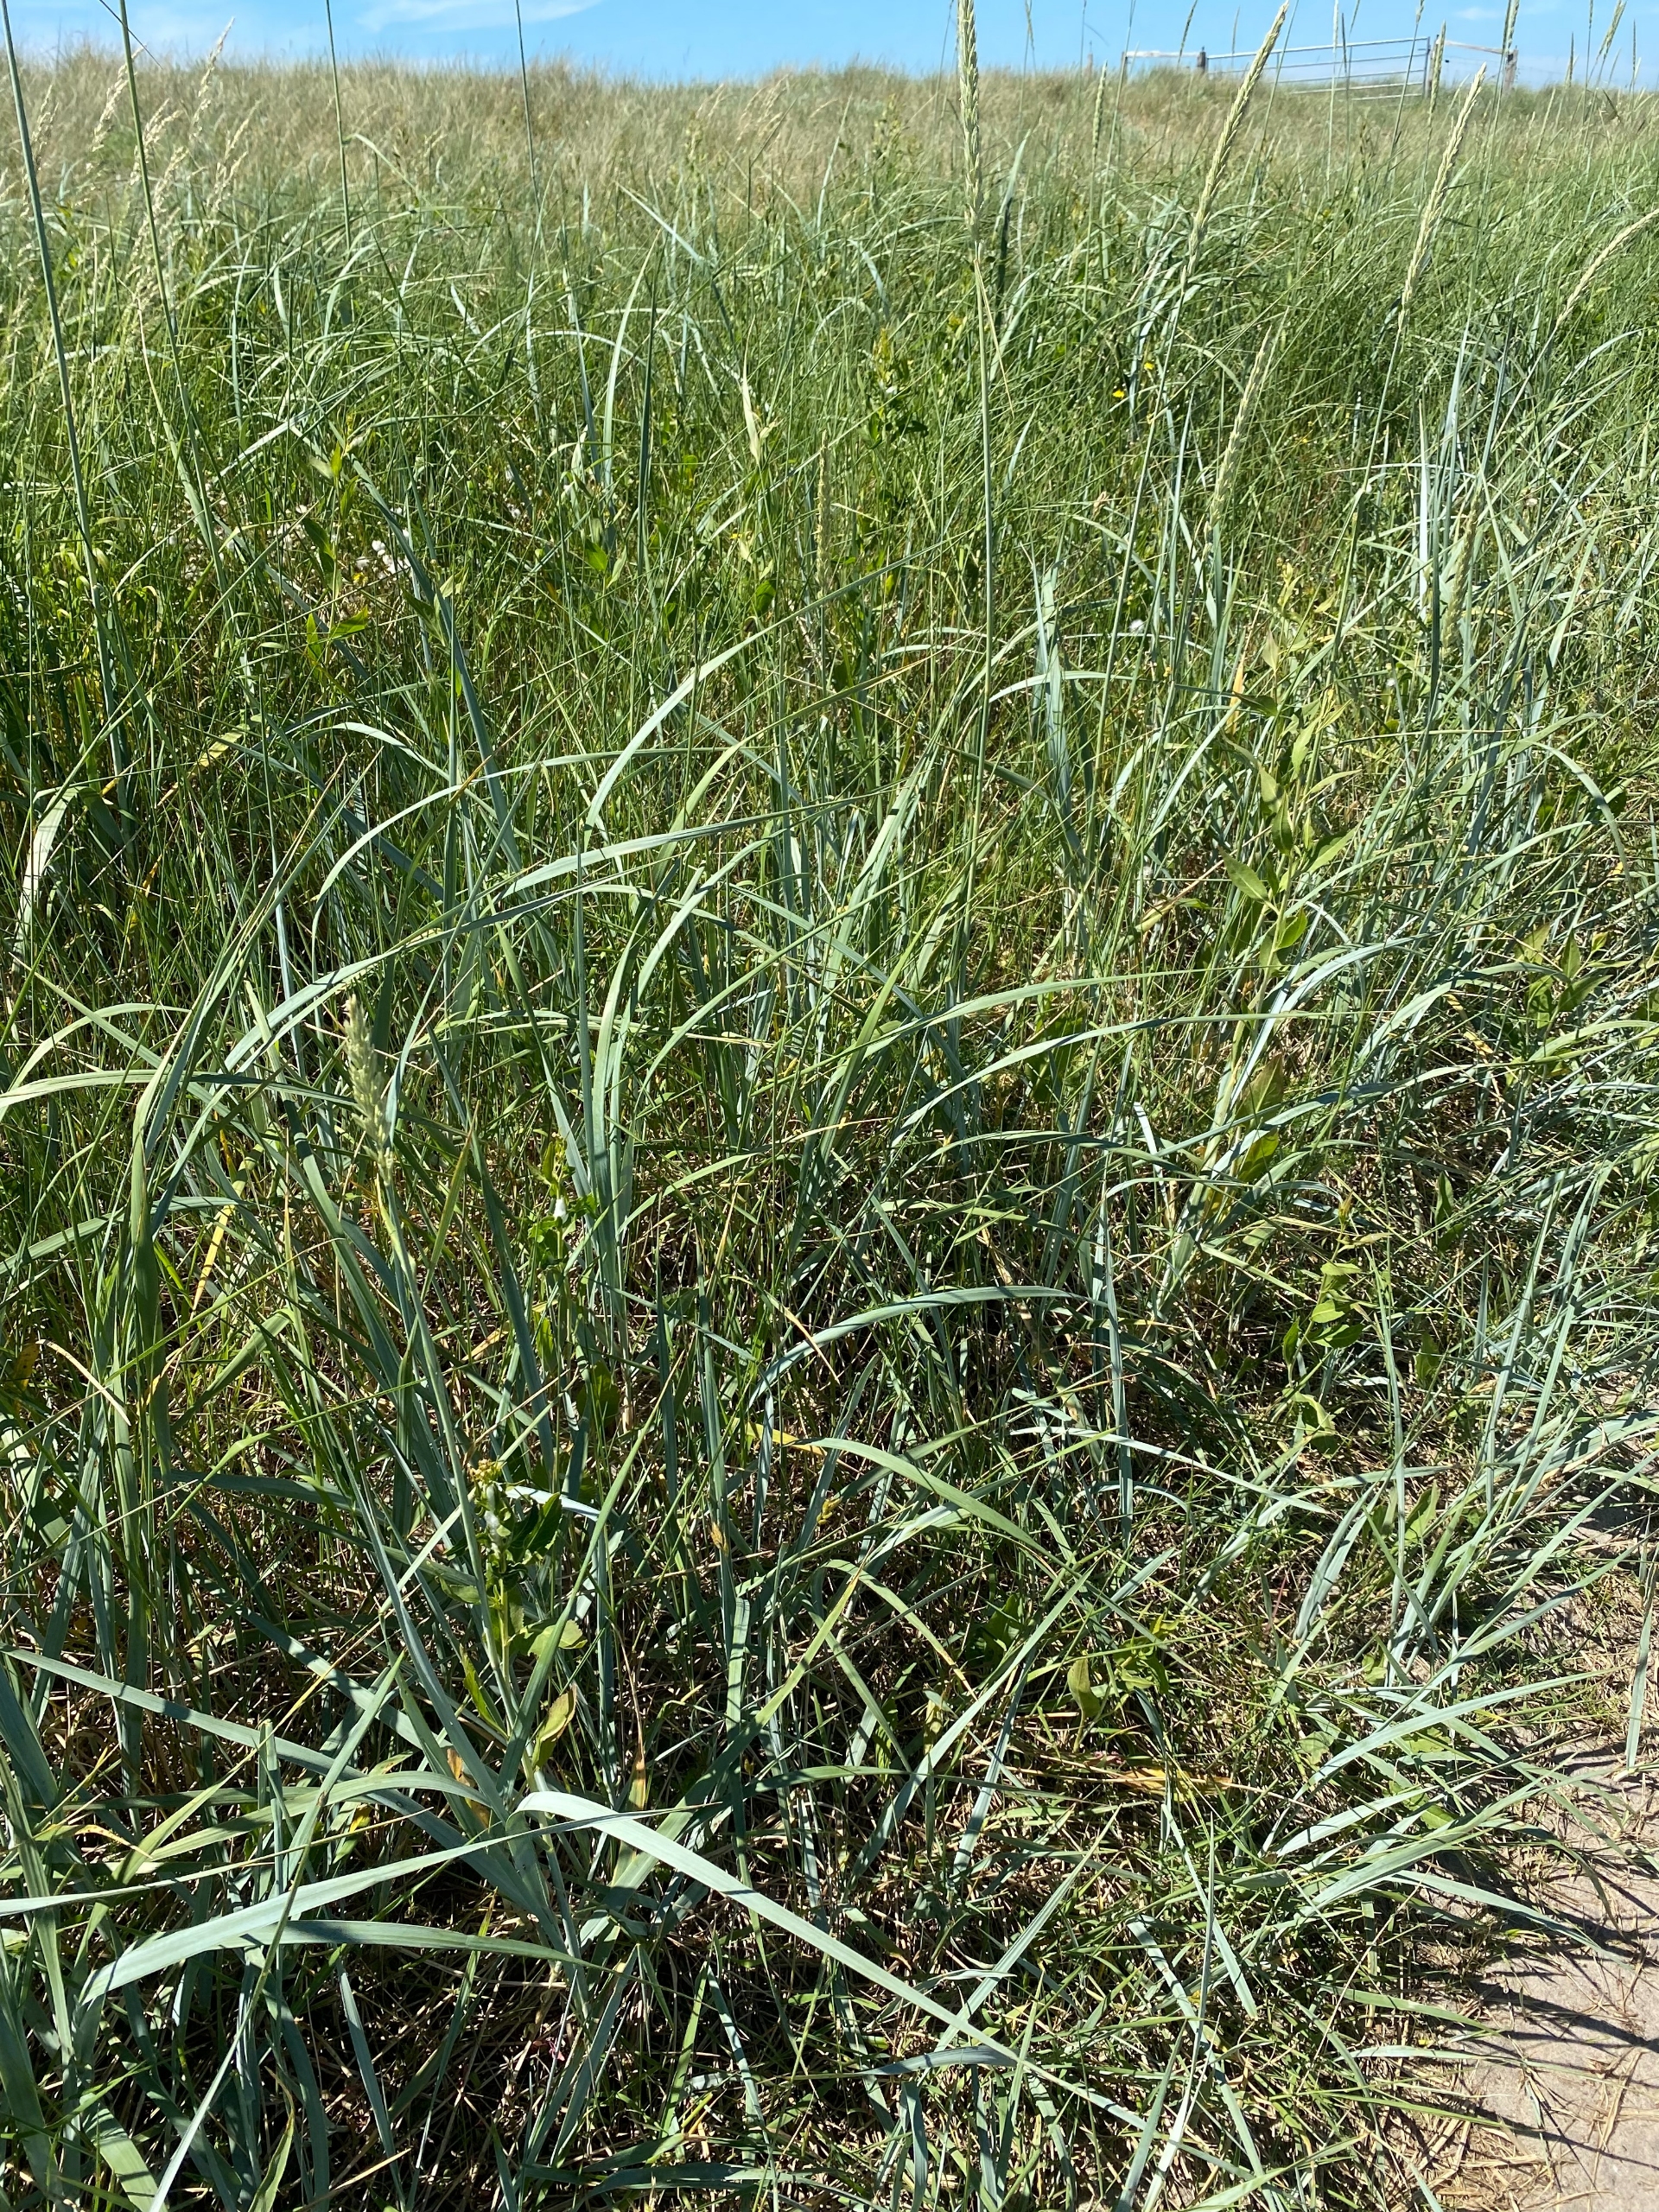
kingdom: Plantae
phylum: Tracheophyta
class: Liliopsida
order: Poales
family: Poaceae
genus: Leymus
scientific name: Leymus arenarius
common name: Marehalm
